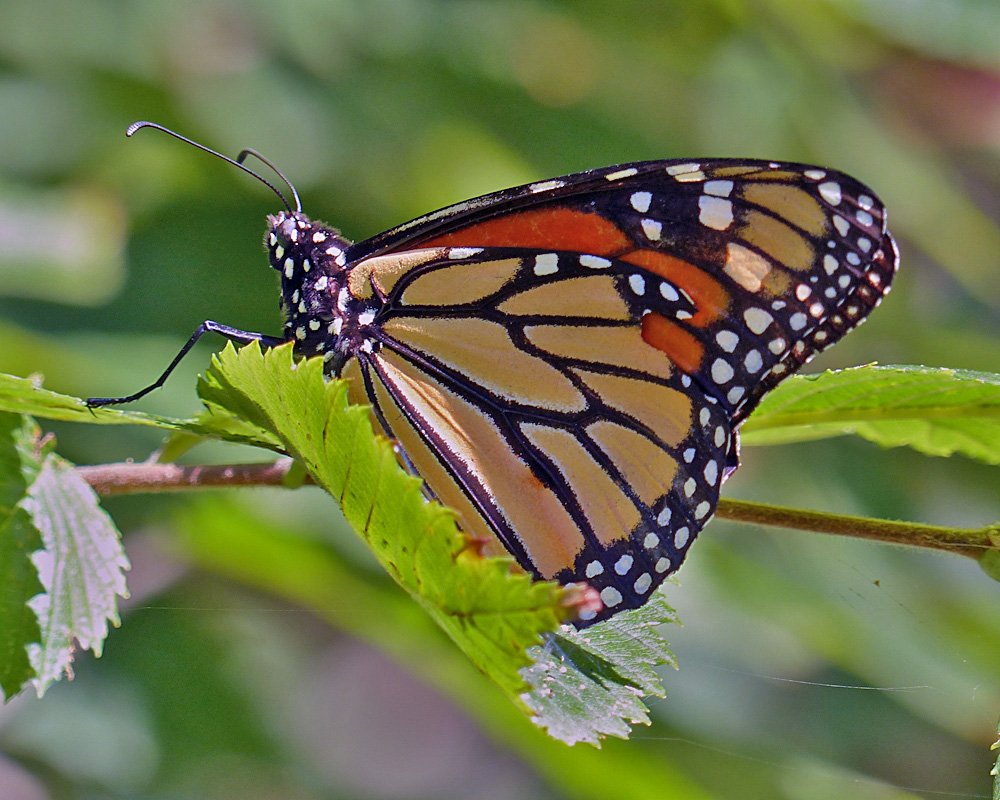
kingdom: Animalia
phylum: Arthropoda
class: Insecta
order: Lepidoptera
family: Nymphalidae
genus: Danaus
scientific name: Danaus plexippus
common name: Monarch
